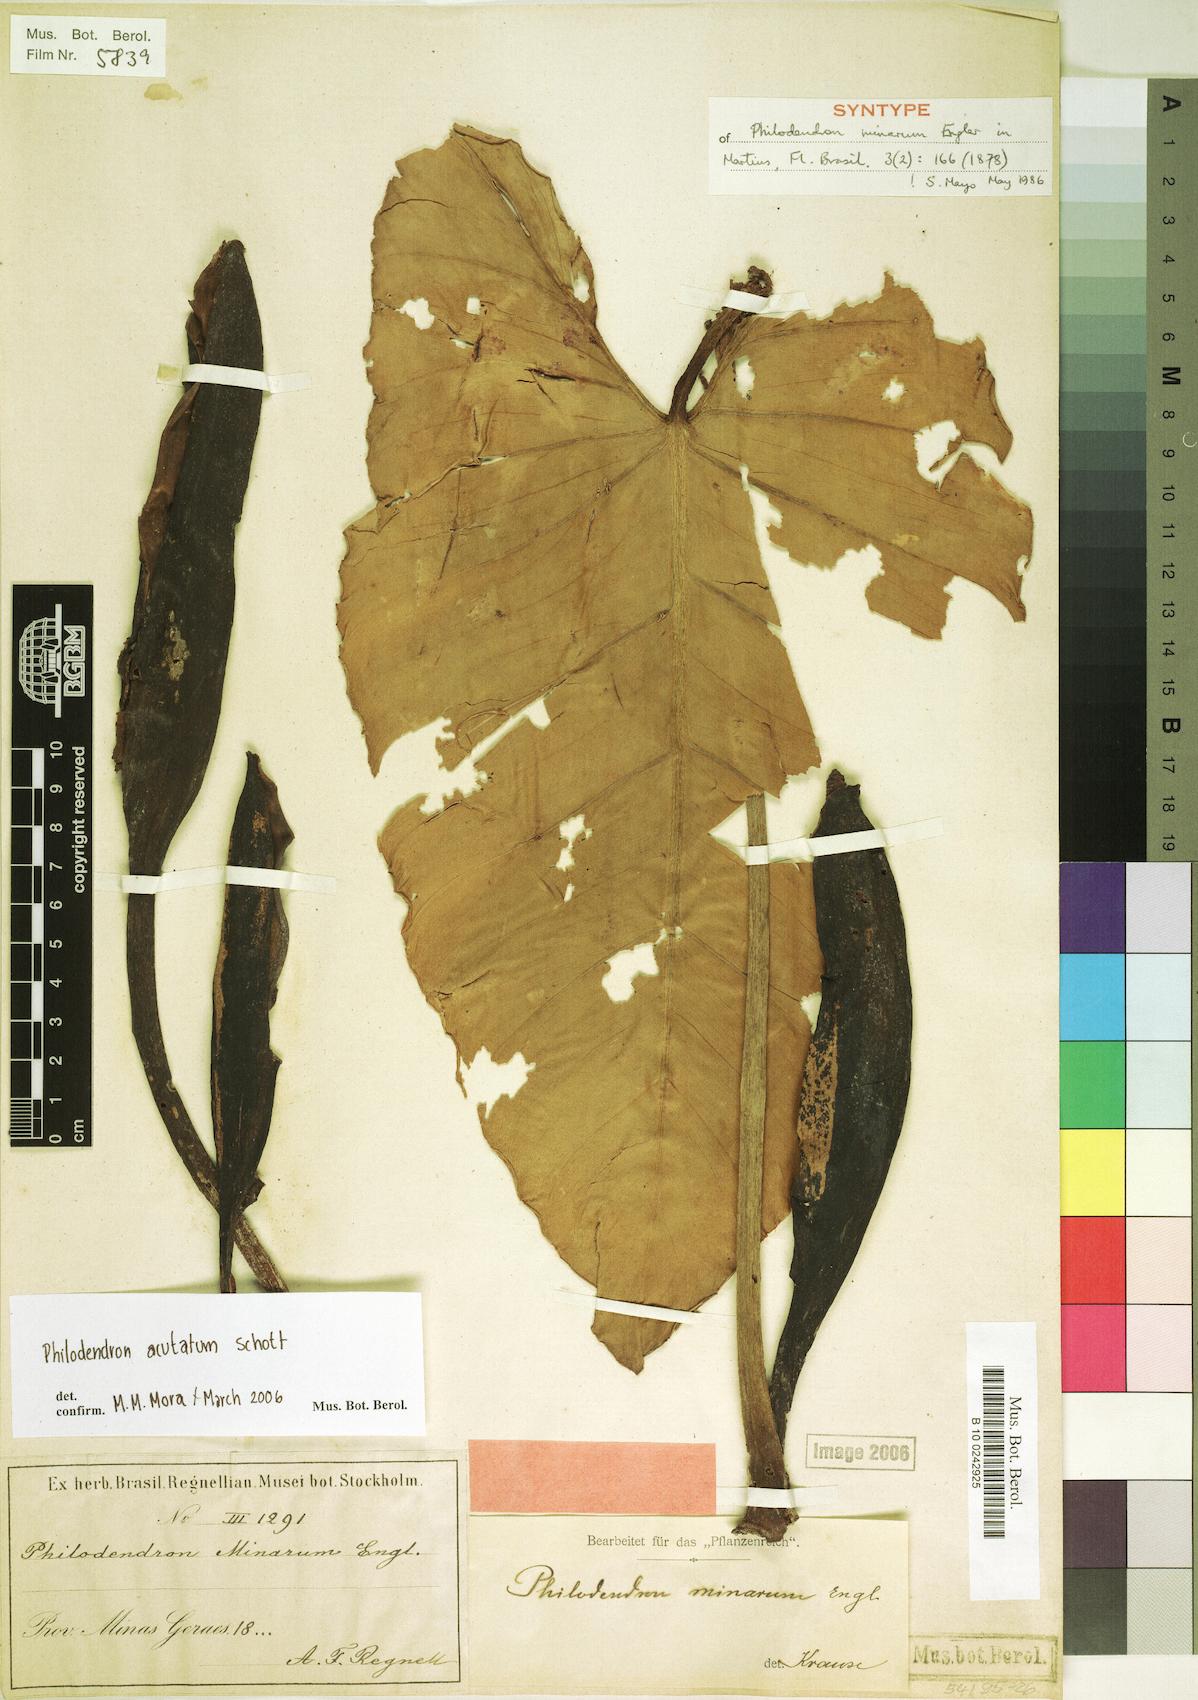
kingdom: Plantae
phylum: Tracheophyta
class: Liliopsida
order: Alismatales
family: Araceae
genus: Philodendron
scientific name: Philodendron quinquenervium
